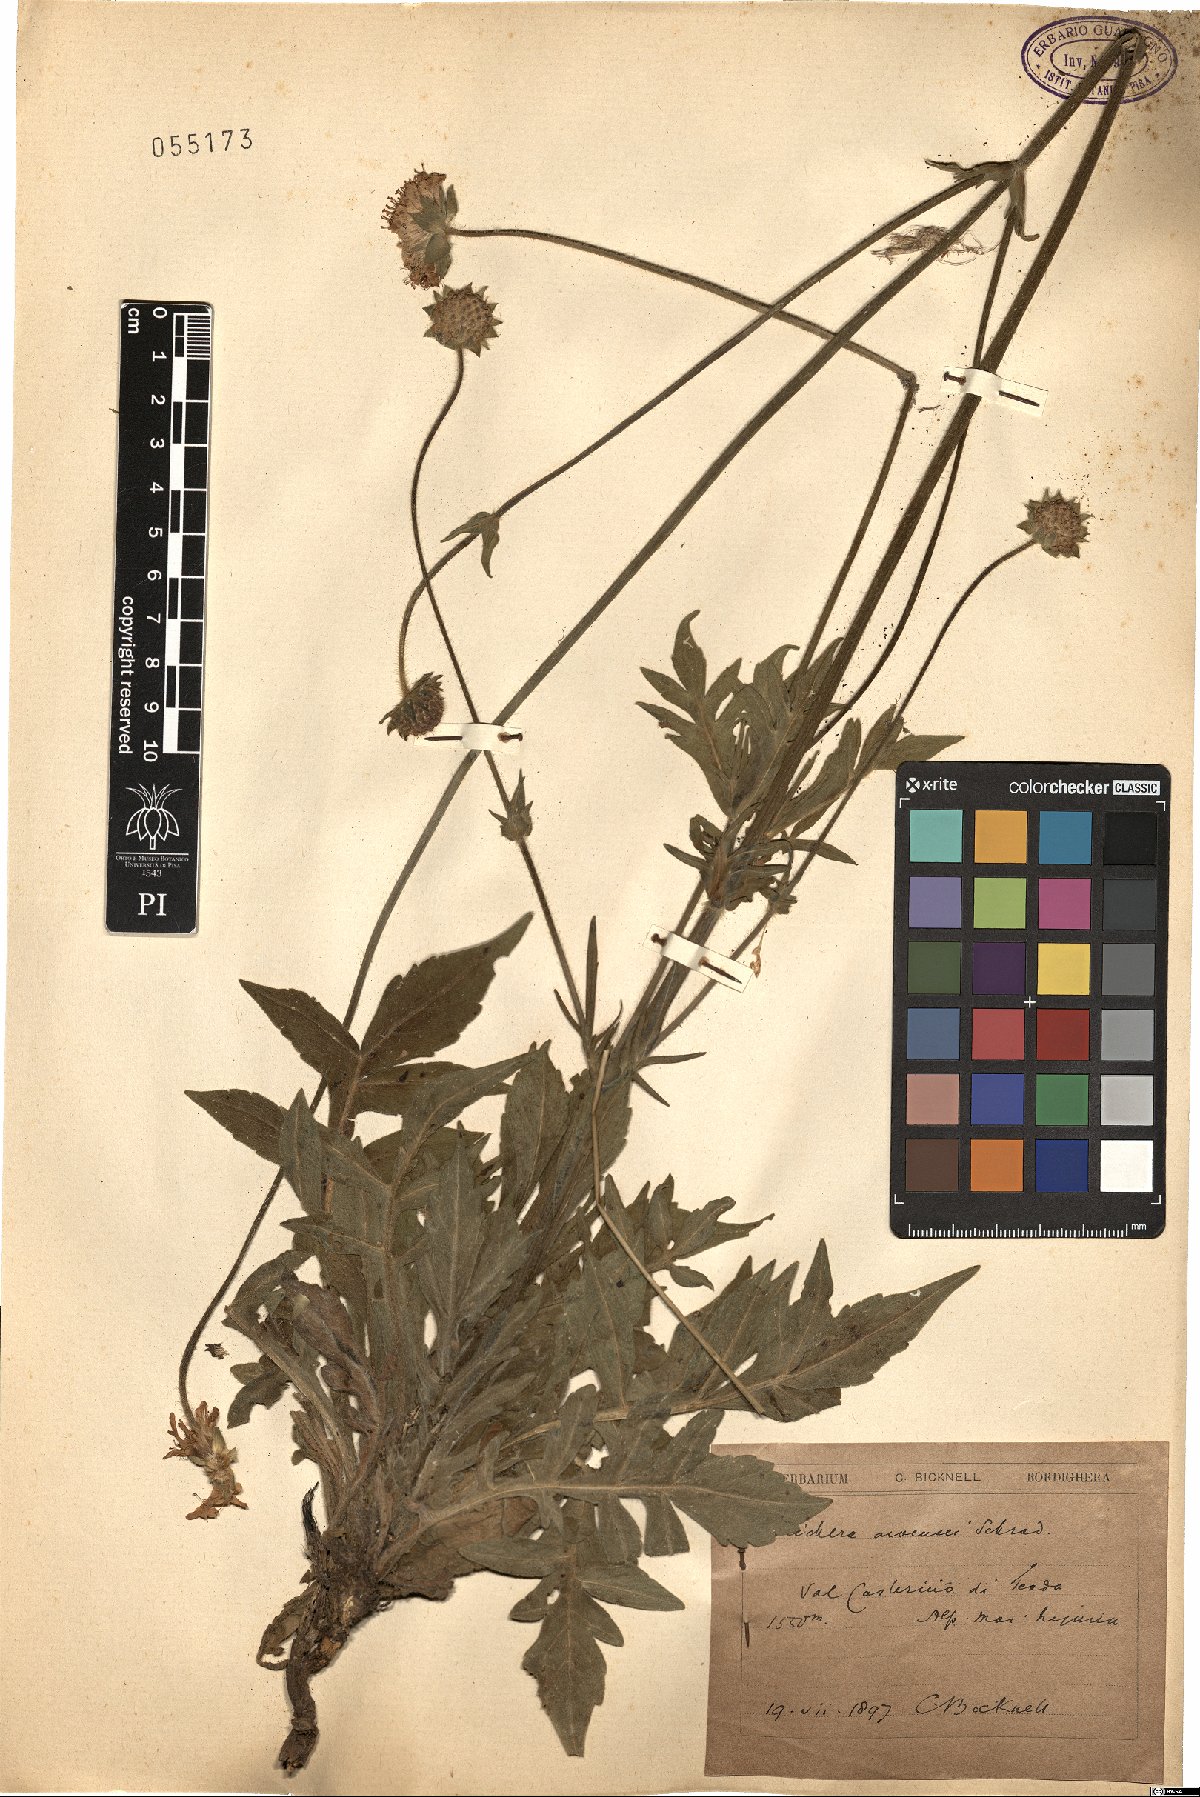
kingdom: Plantae
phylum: Tracheophyta
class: Magnoliopsida
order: Dipsacales
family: Caprifoliaceae
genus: Knautia
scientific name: Knautia arvensis
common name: Field scabiosa
